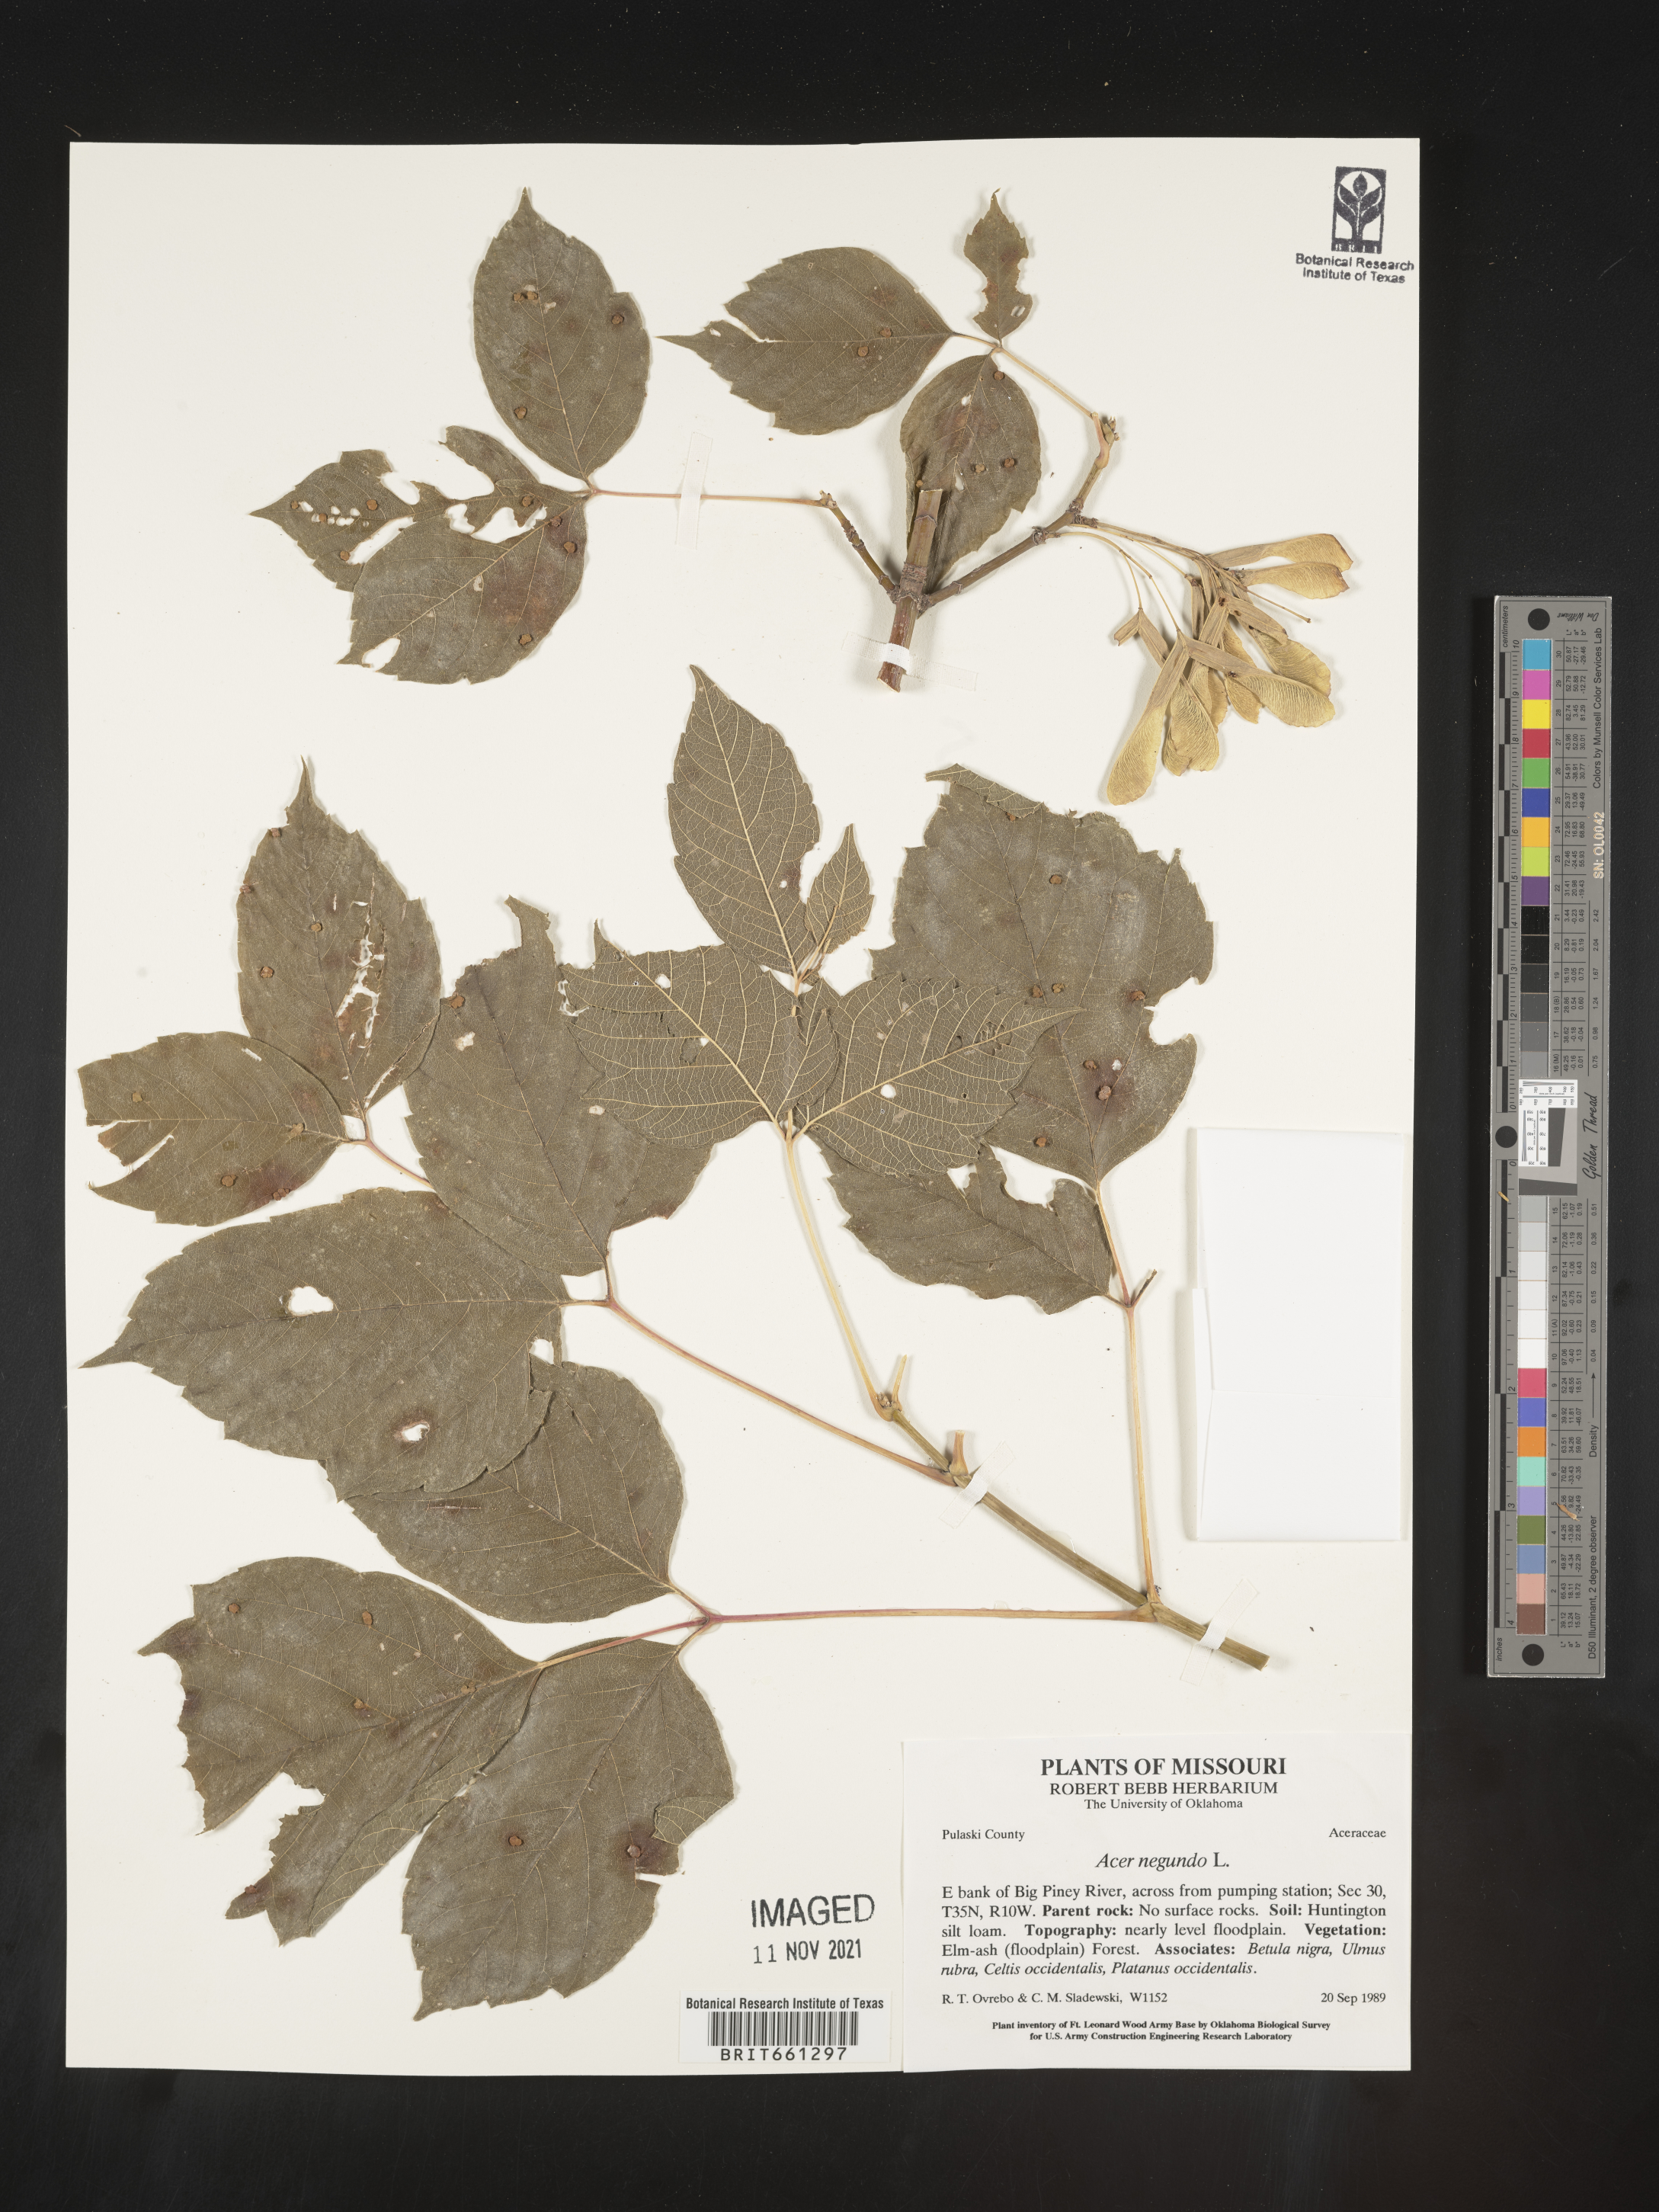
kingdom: Plantae
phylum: Tracheophyta
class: Magnoliopsida
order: Sapindales
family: Sapindaceae
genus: Acer
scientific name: Acer negundo
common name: Ashleaf maple
